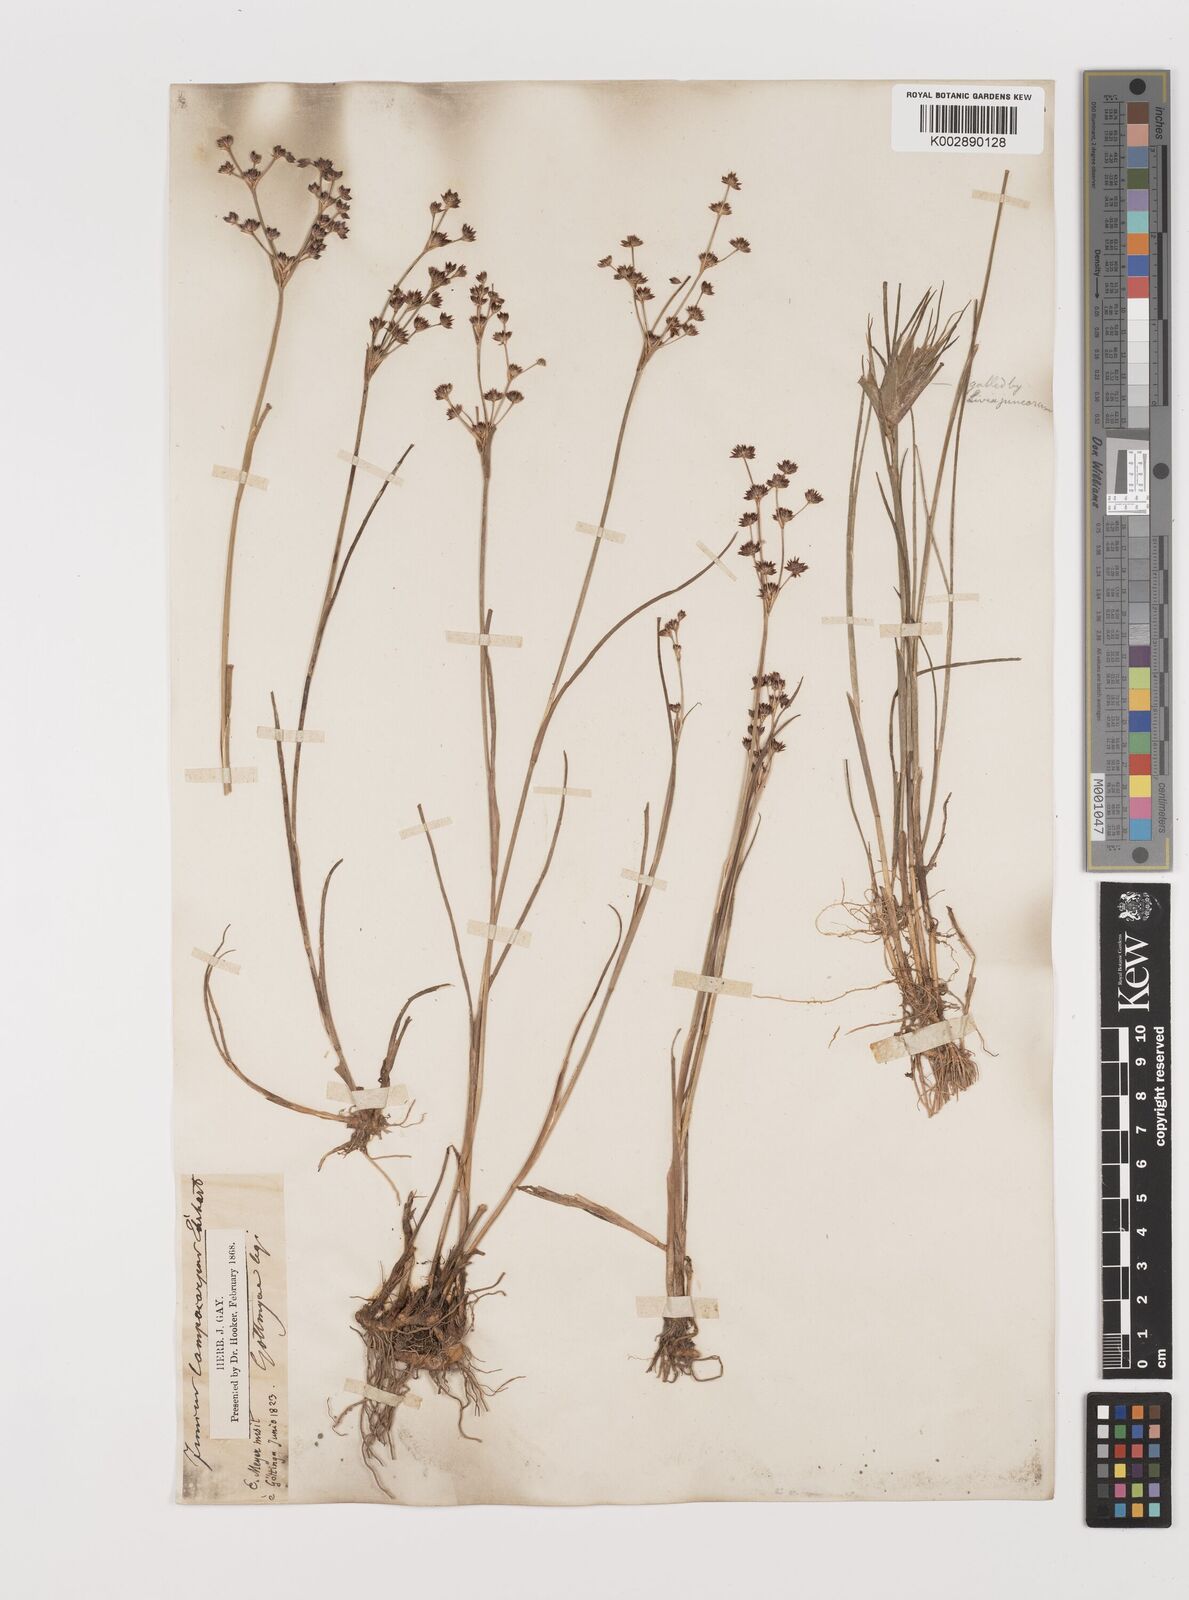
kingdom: Plantae
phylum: Tracheophyta
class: Liliopsida
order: Poales
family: Juncaceae
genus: Juncus
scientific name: Juncus articulatus
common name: Jointed rush
